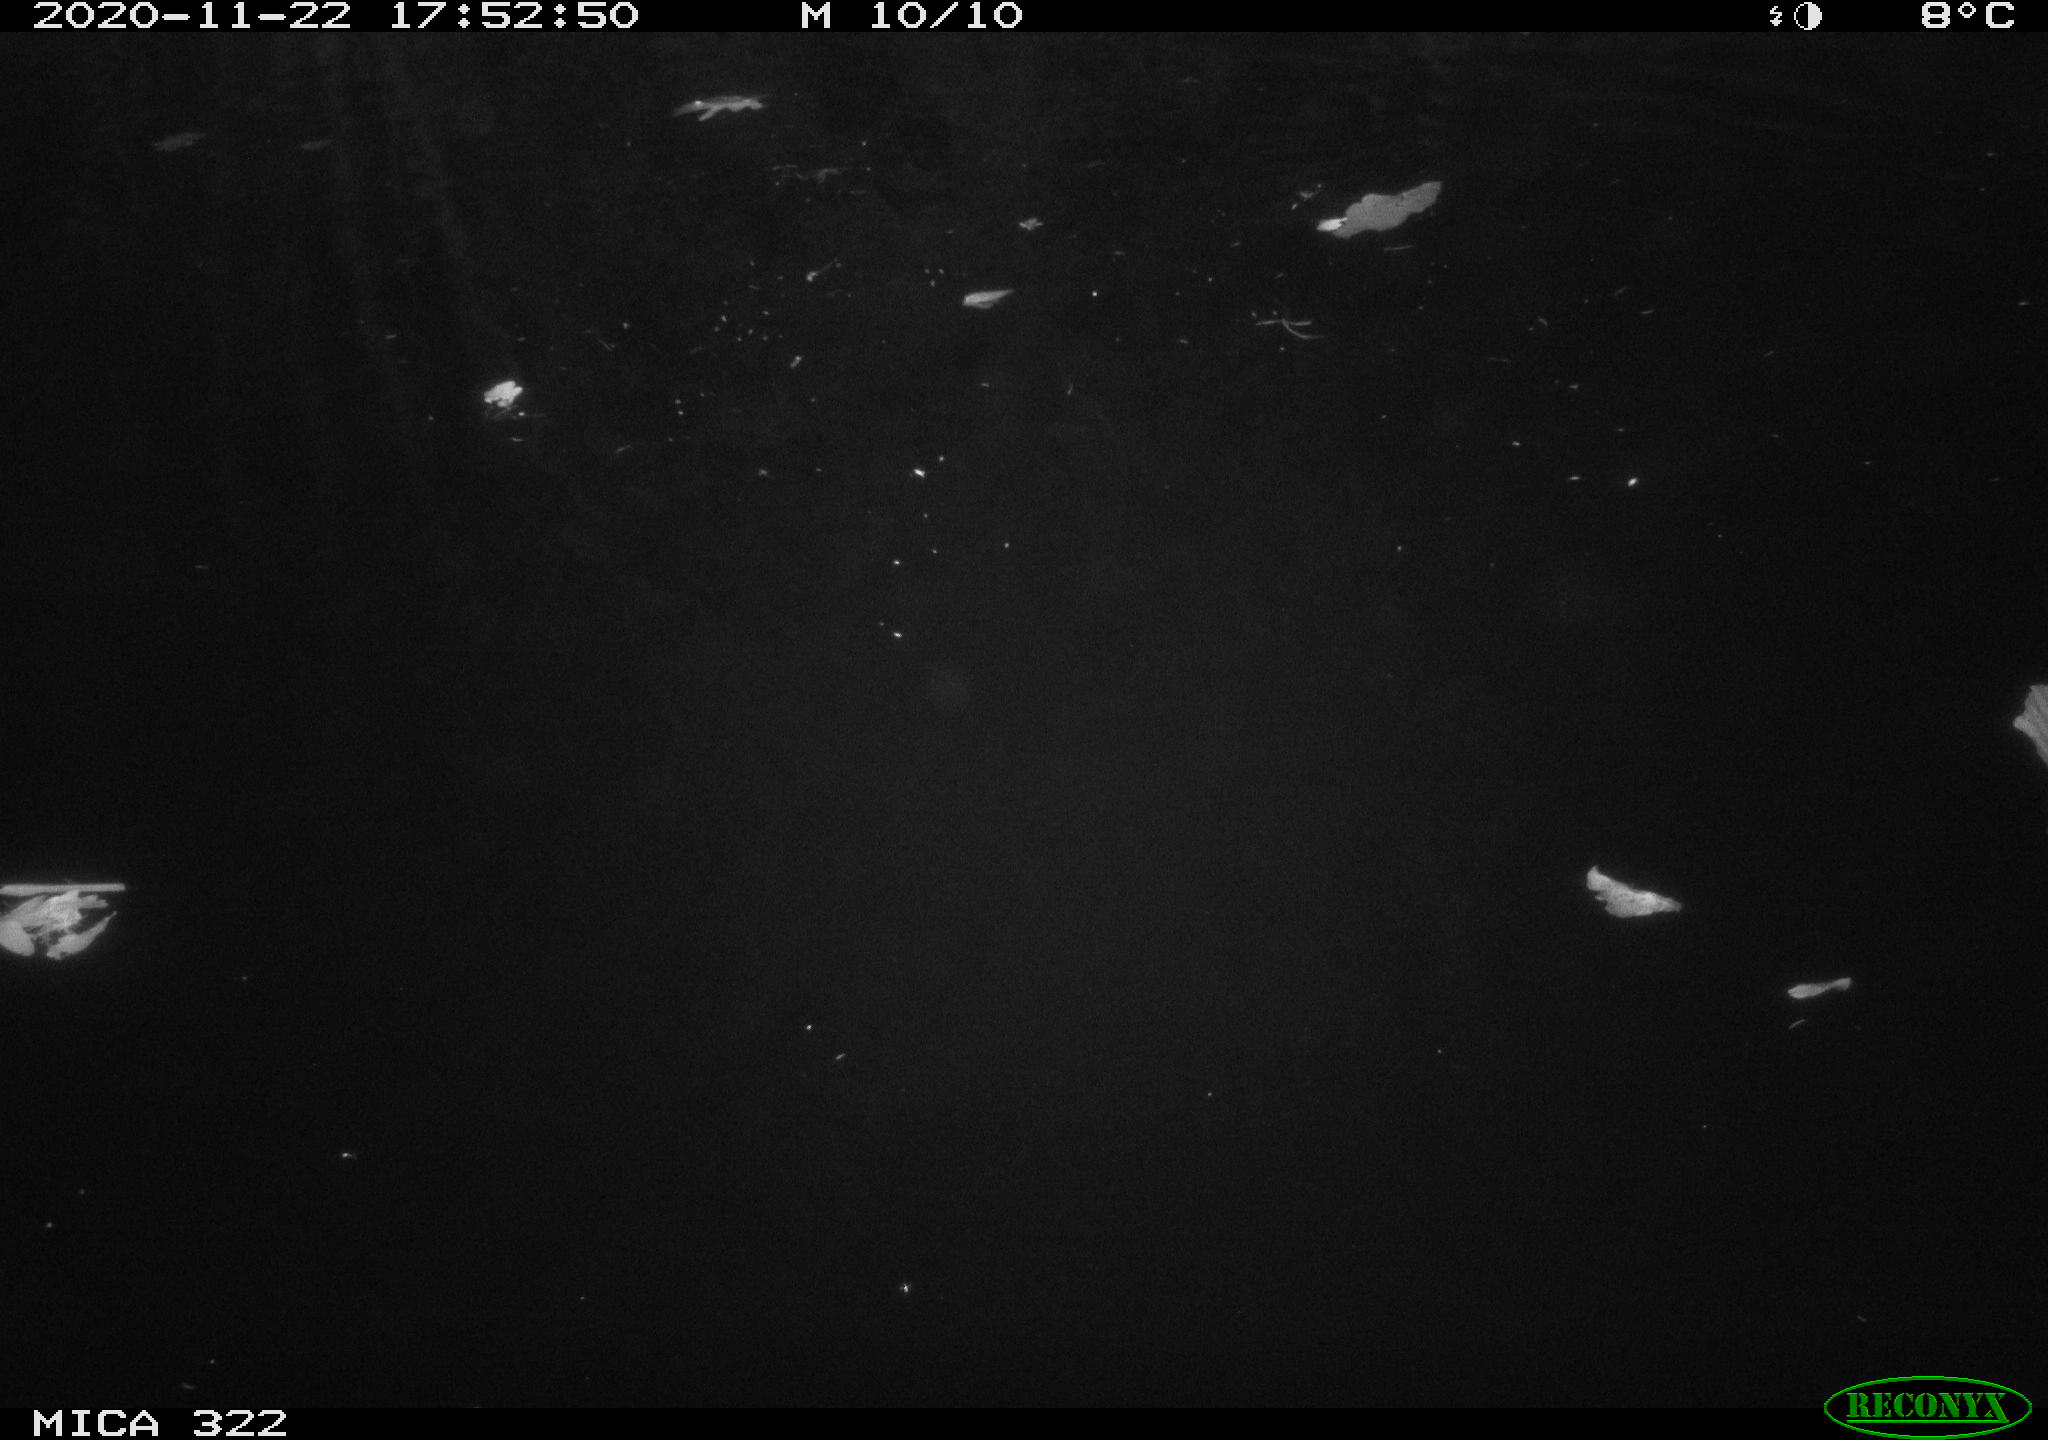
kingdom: Animalia
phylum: Chordata
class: Aves
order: Gruiformes
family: Rallidae
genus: Gallinula
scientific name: Gallinula chloropus
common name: Common moorhen
